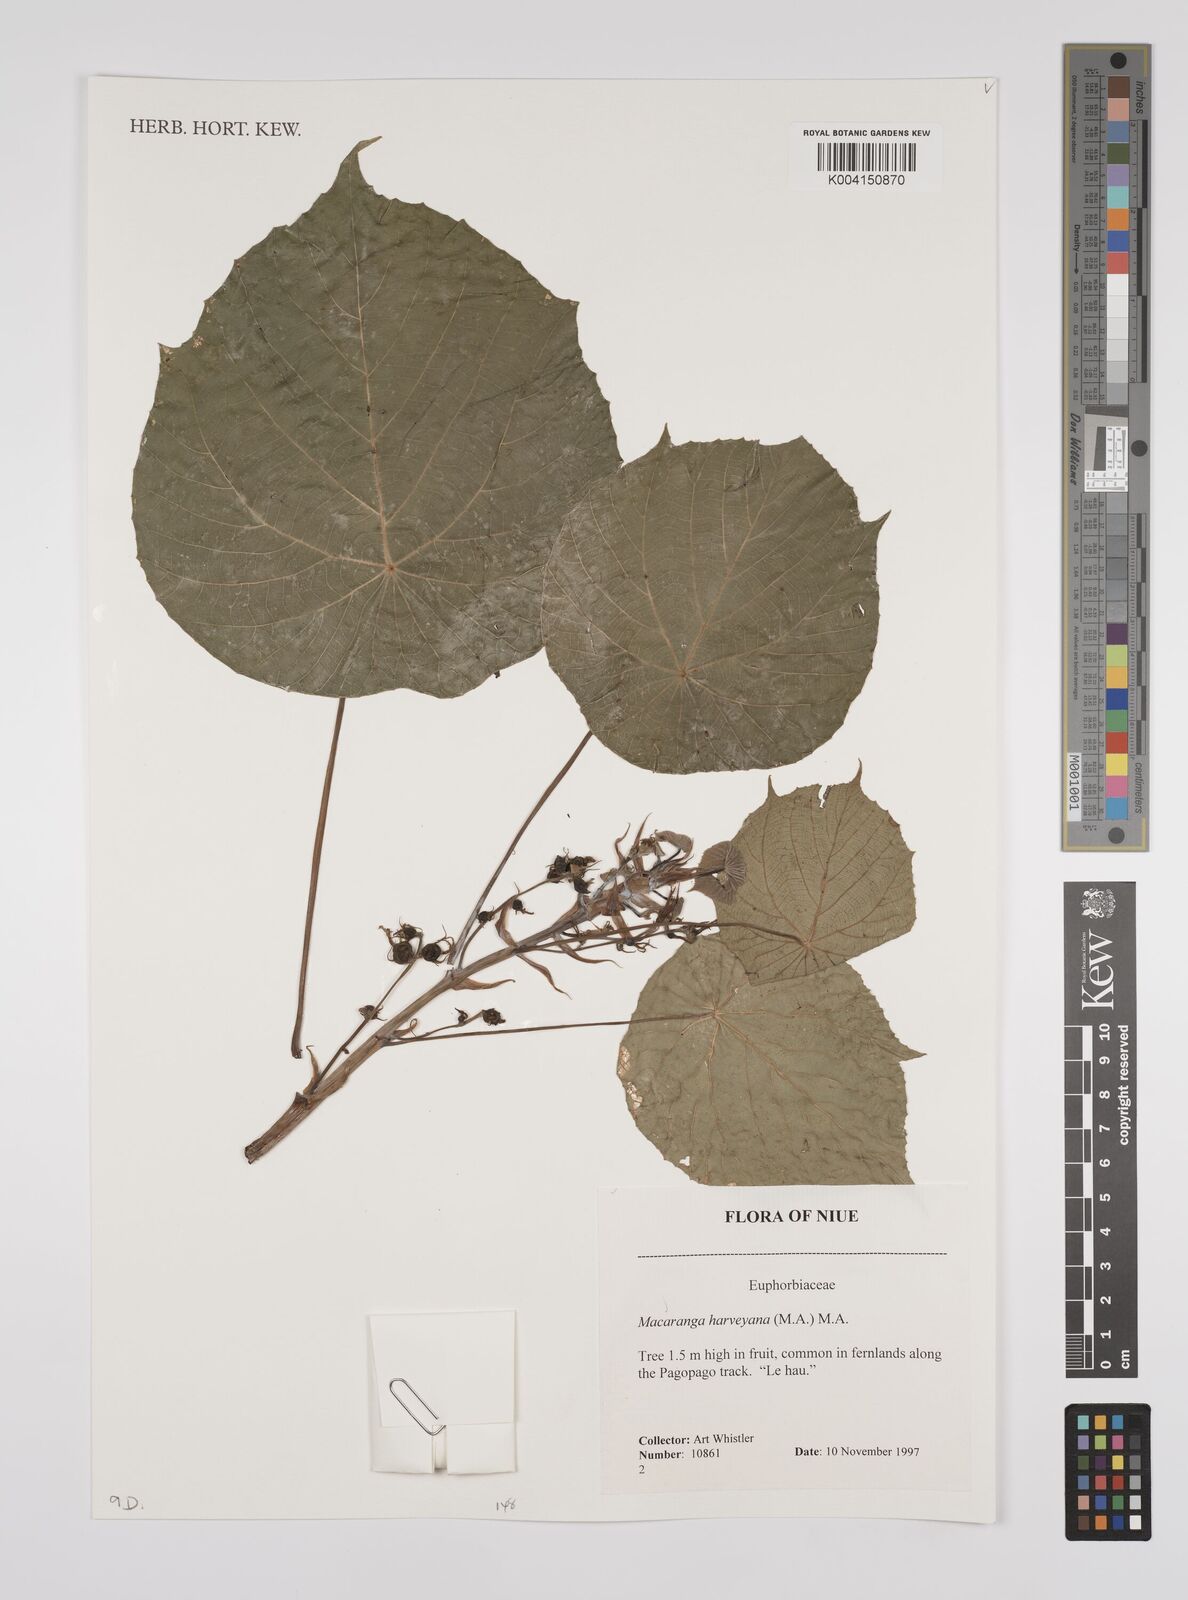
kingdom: Plantae
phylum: Tracheophyta
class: Magnoliopsida
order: Malpighiales
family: Euphorbiaceae
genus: Macaranga
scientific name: Macaranga harveyana
